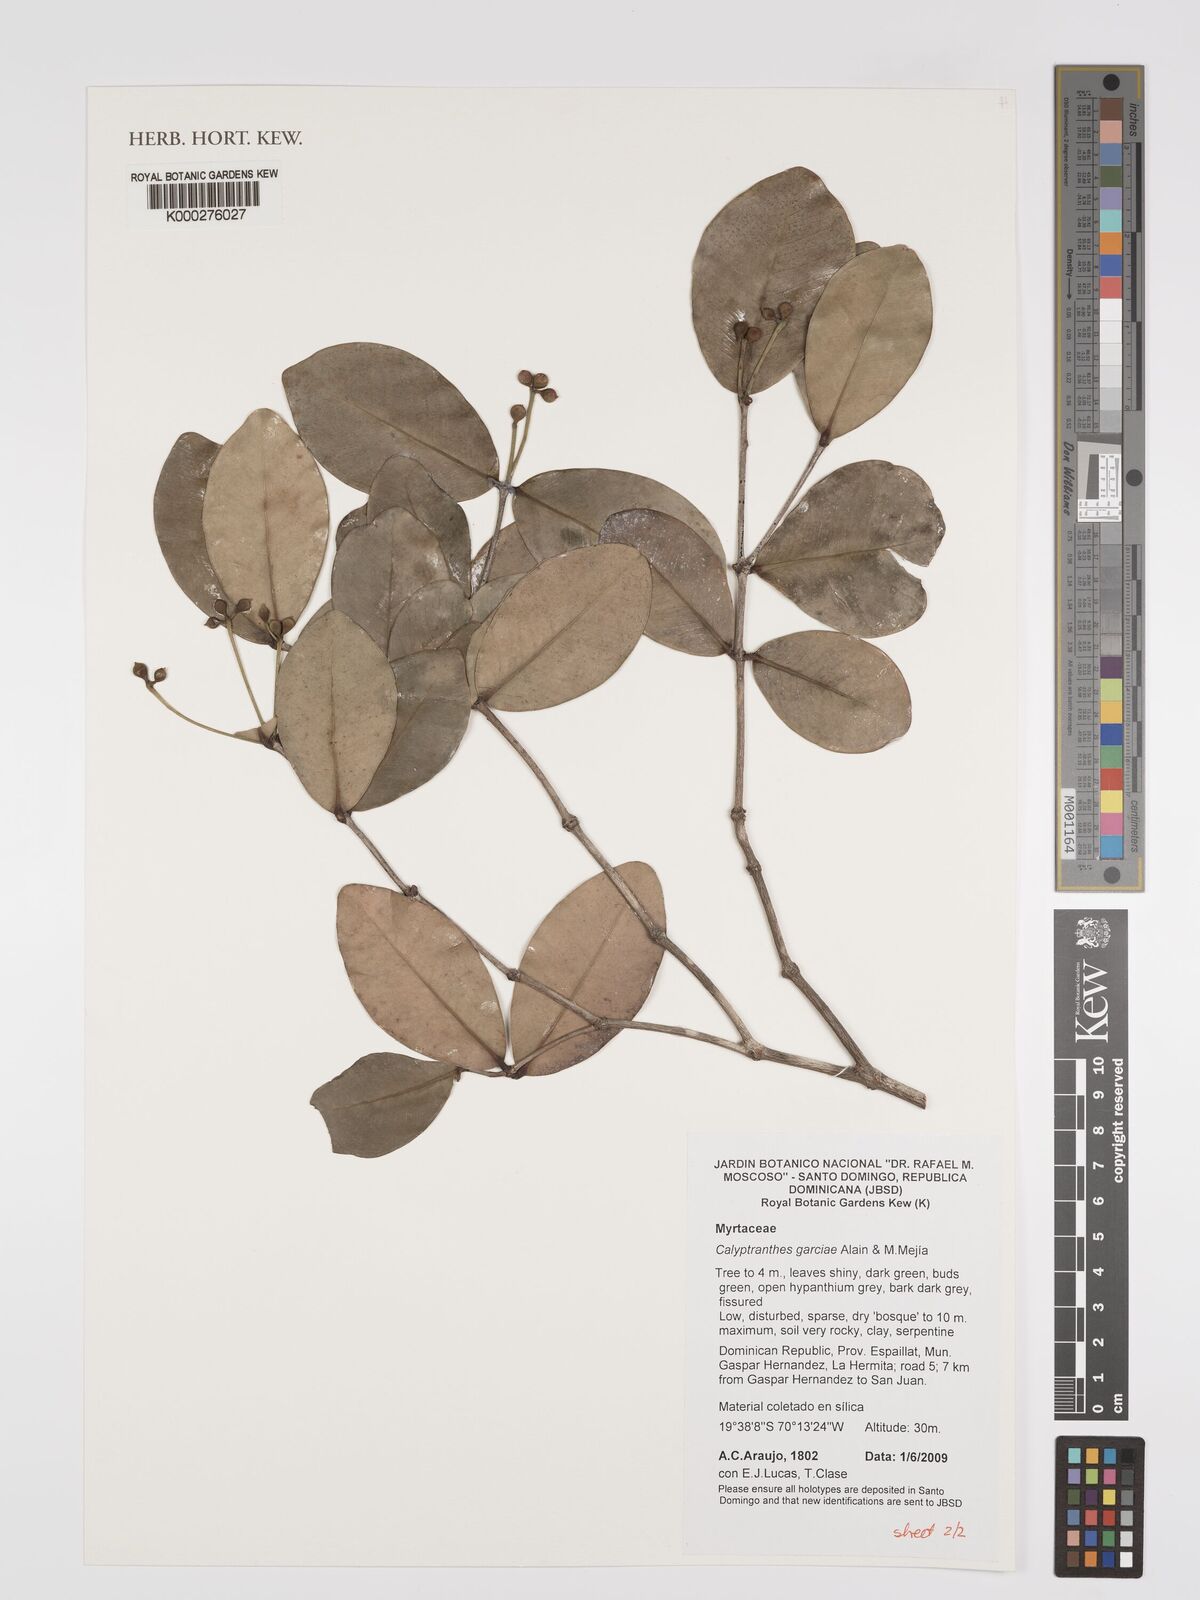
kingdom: Plantae
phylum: Tracheophyta
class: Magnoliopsida
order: Myrtales
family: Myrtaceae
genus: Myrcia
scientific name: Myrcia garciae
